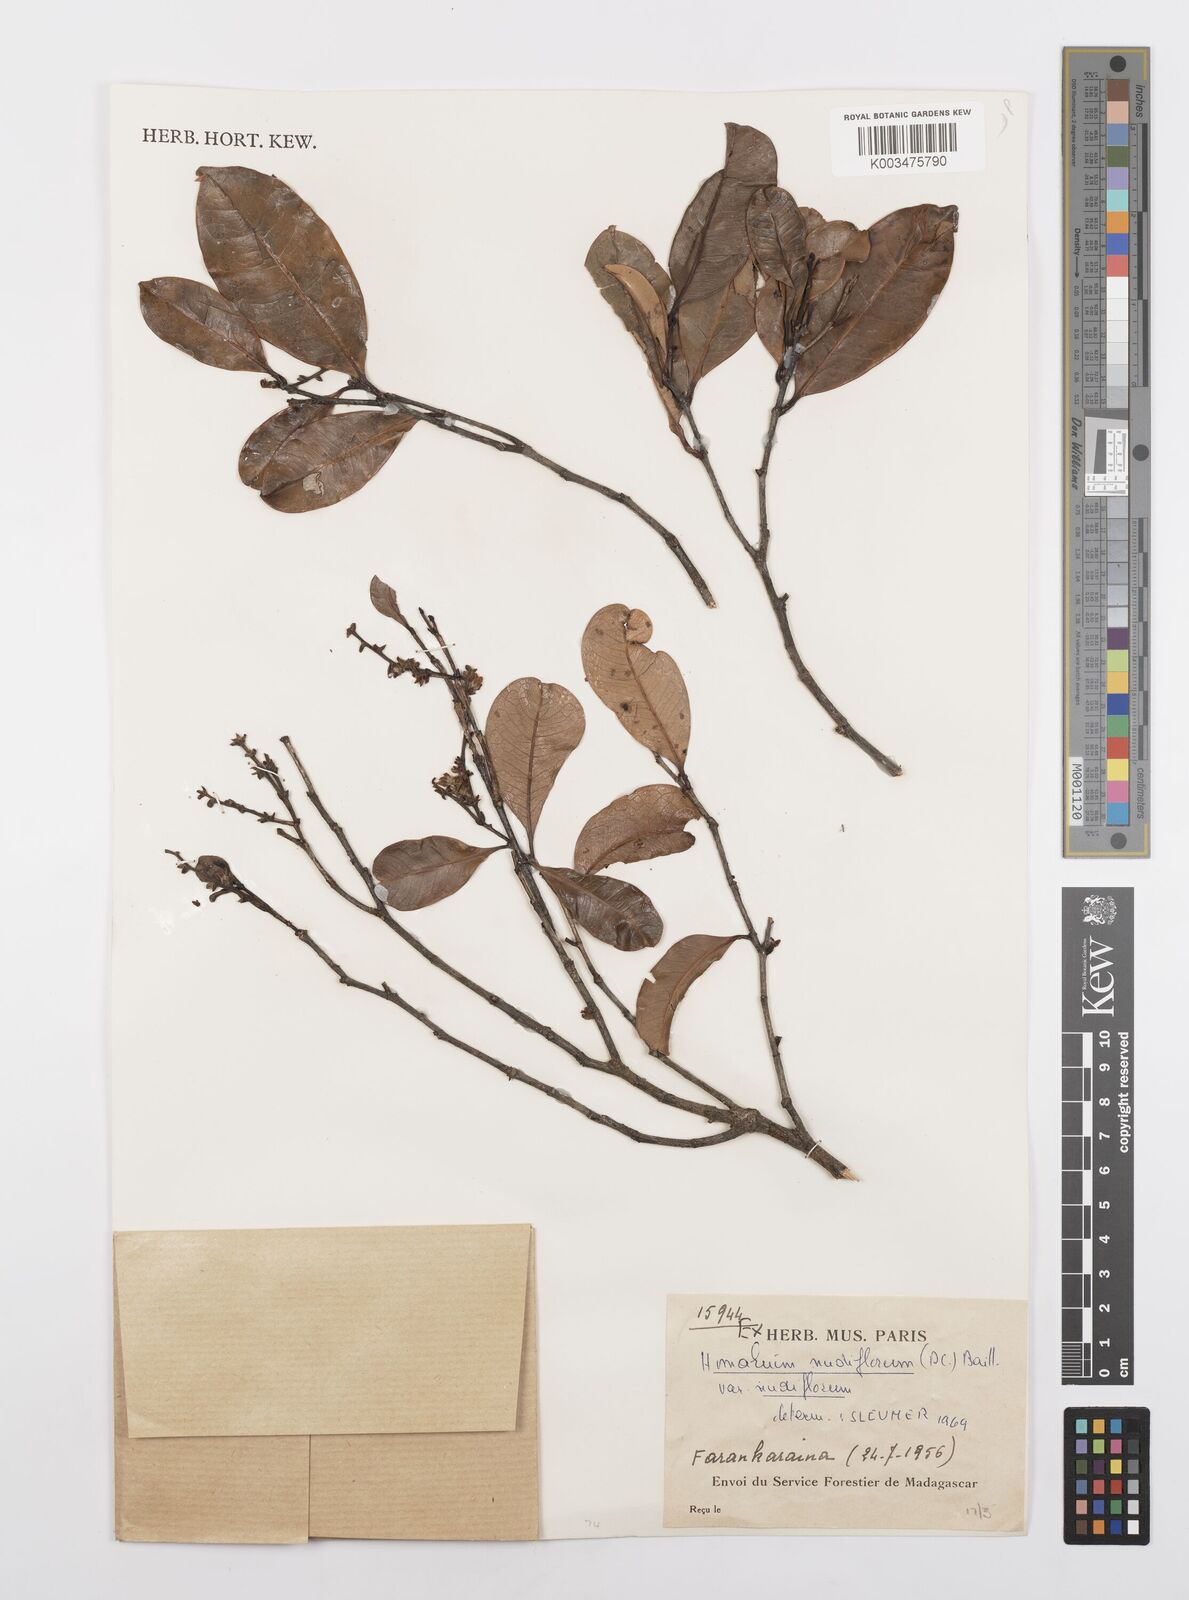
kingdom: Plantae
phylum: Tracheophyta
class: Magnoliopsida
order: Malpighiales
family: Salicaceae
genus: Homalium
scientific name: Homalium nudiflorum
